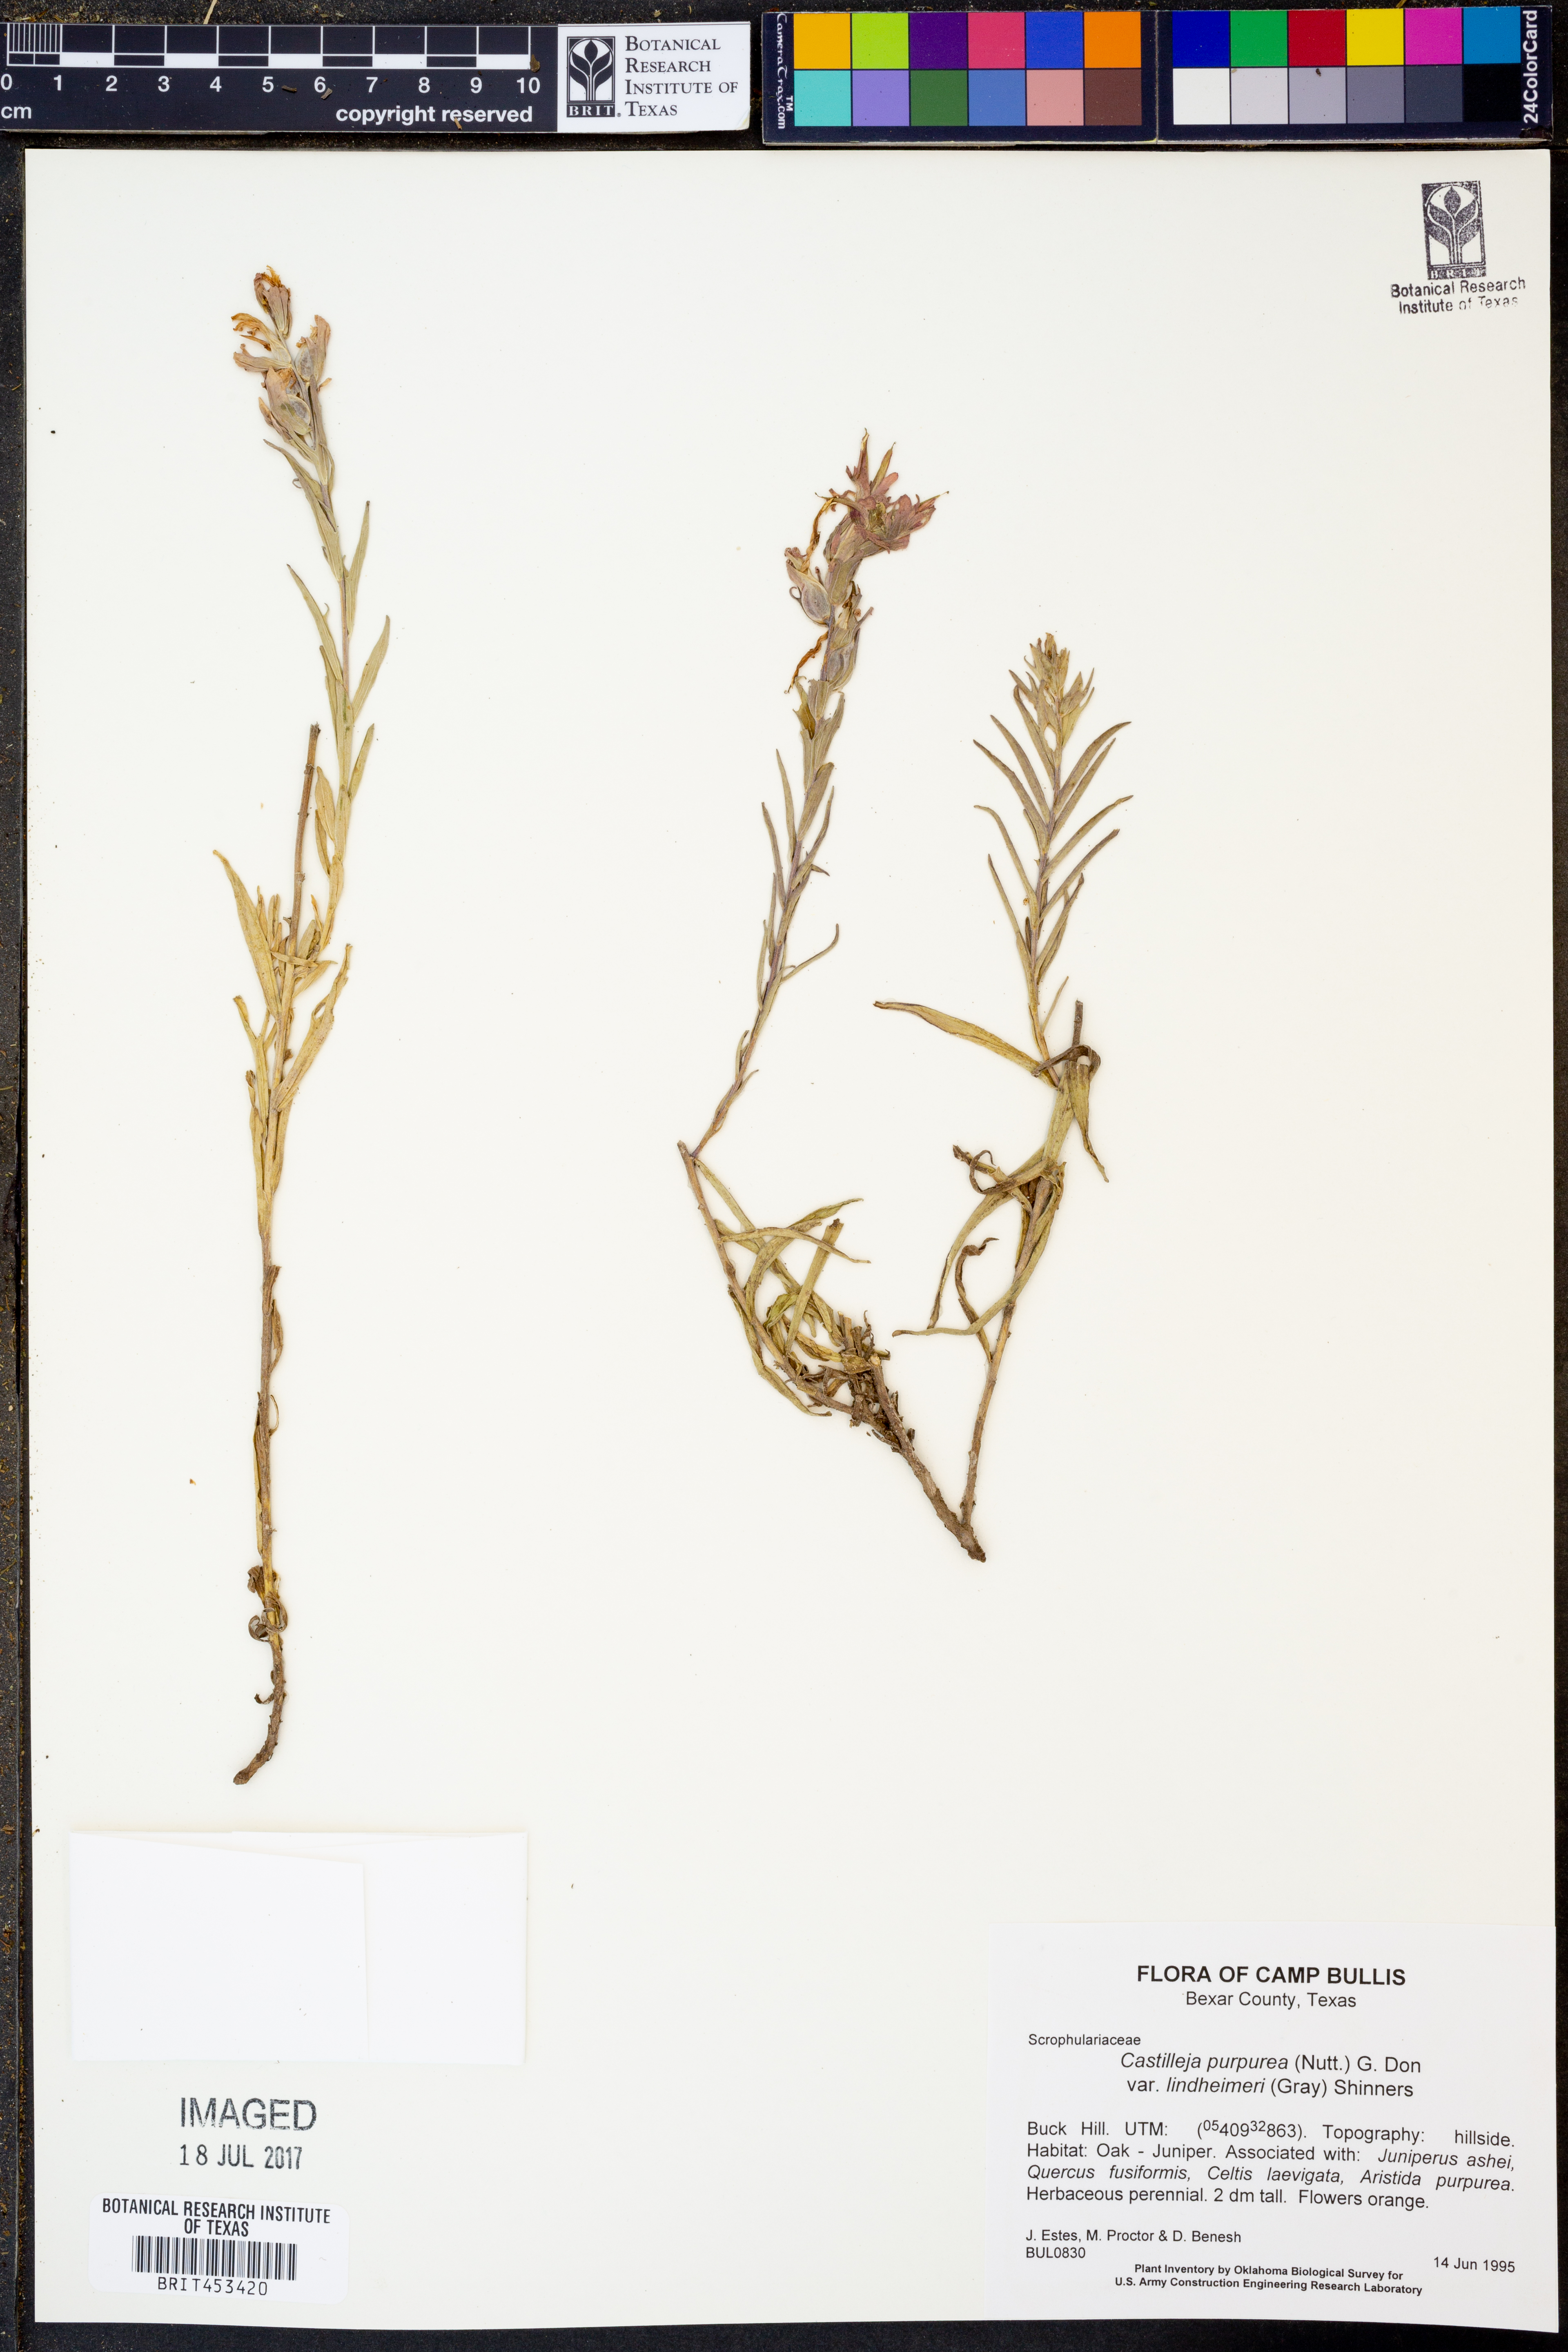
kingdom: Plantae
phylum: Tracheophyta
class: Magnoliopsida
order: Lamiales
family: Orobanchaceae
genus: Castilleja
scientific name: Castilleja lindheimeri
